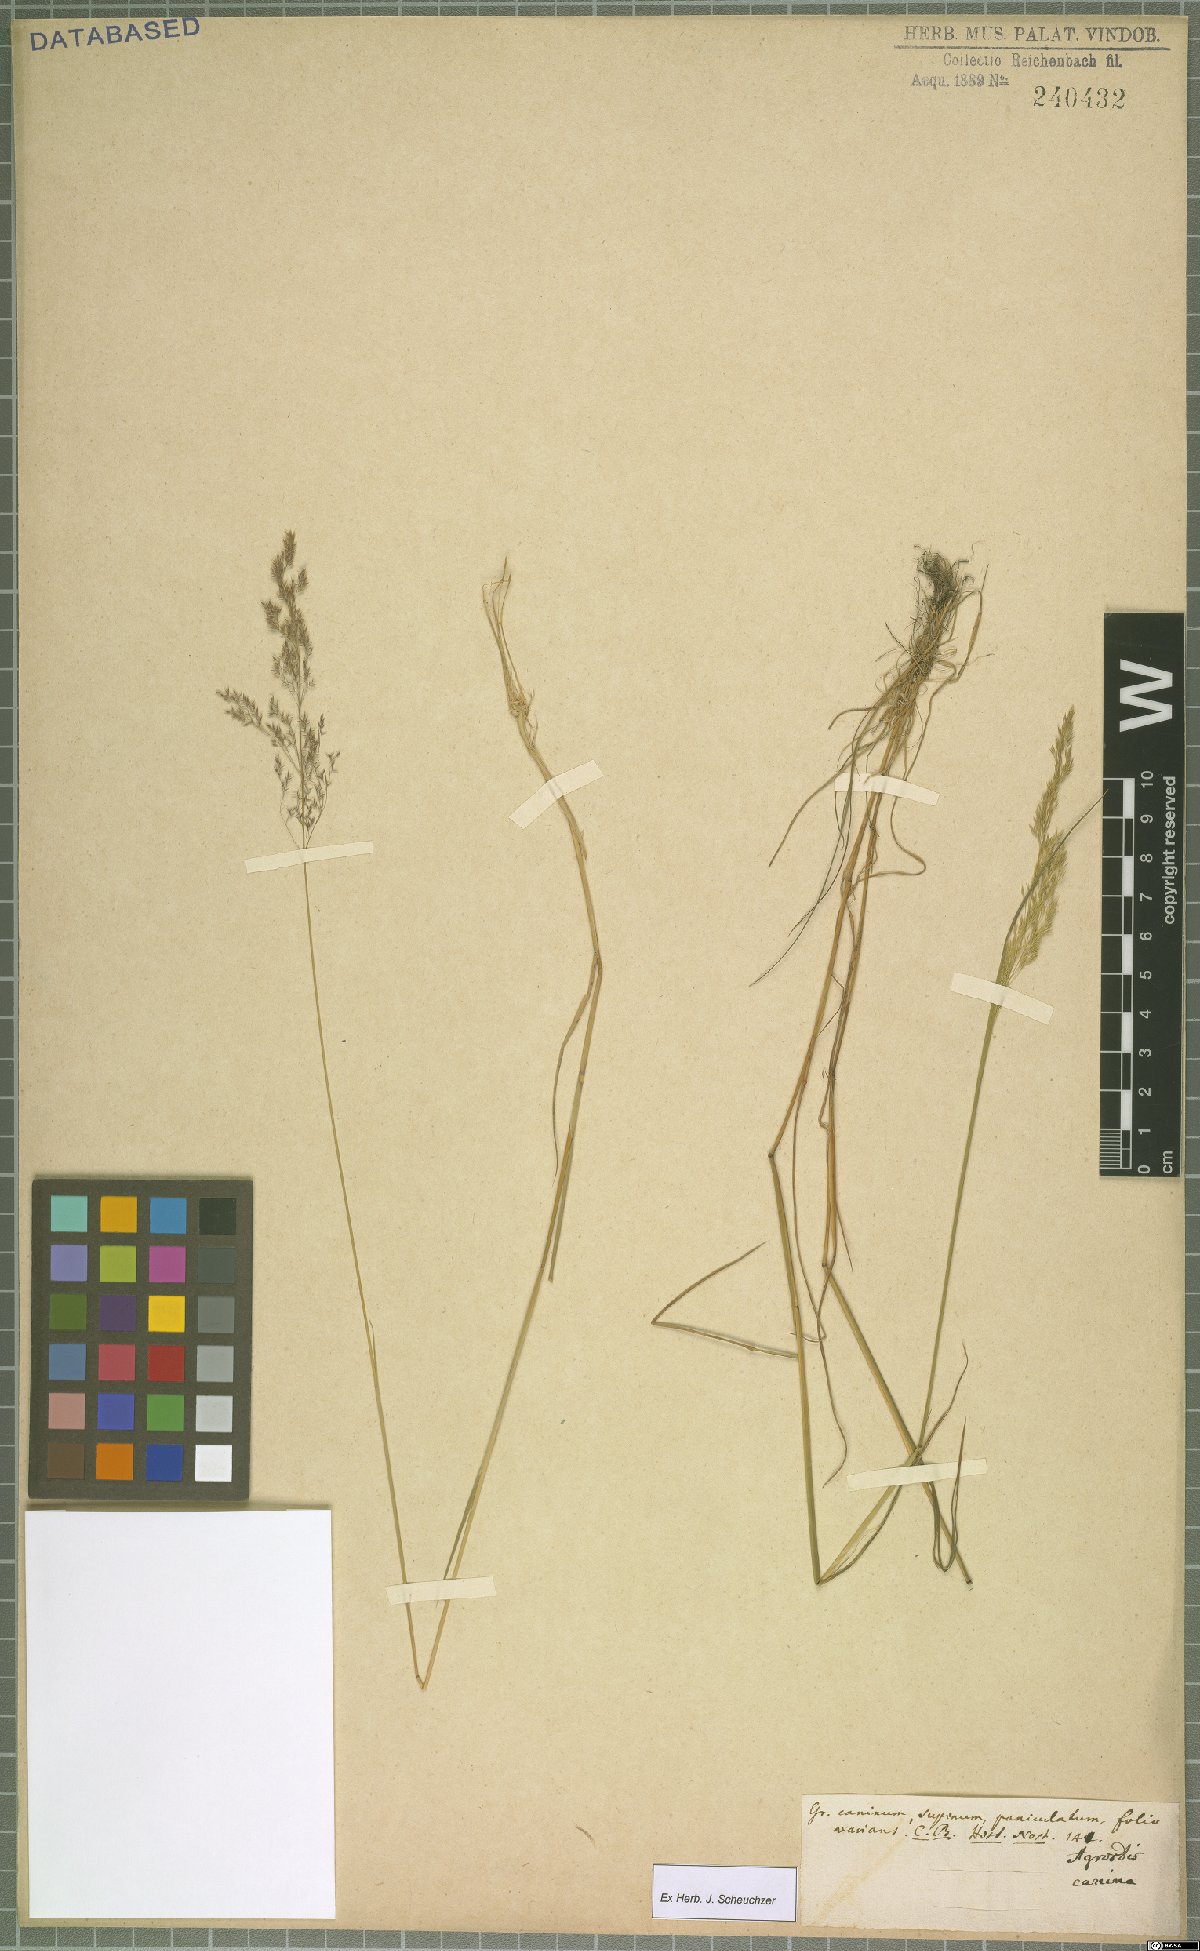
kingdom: Plantae
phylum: Tracheophyta
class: Liliopsida
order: Poales
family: Poaceae
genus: Agrostis
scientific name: Agrostis canina
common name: Velvet bent
